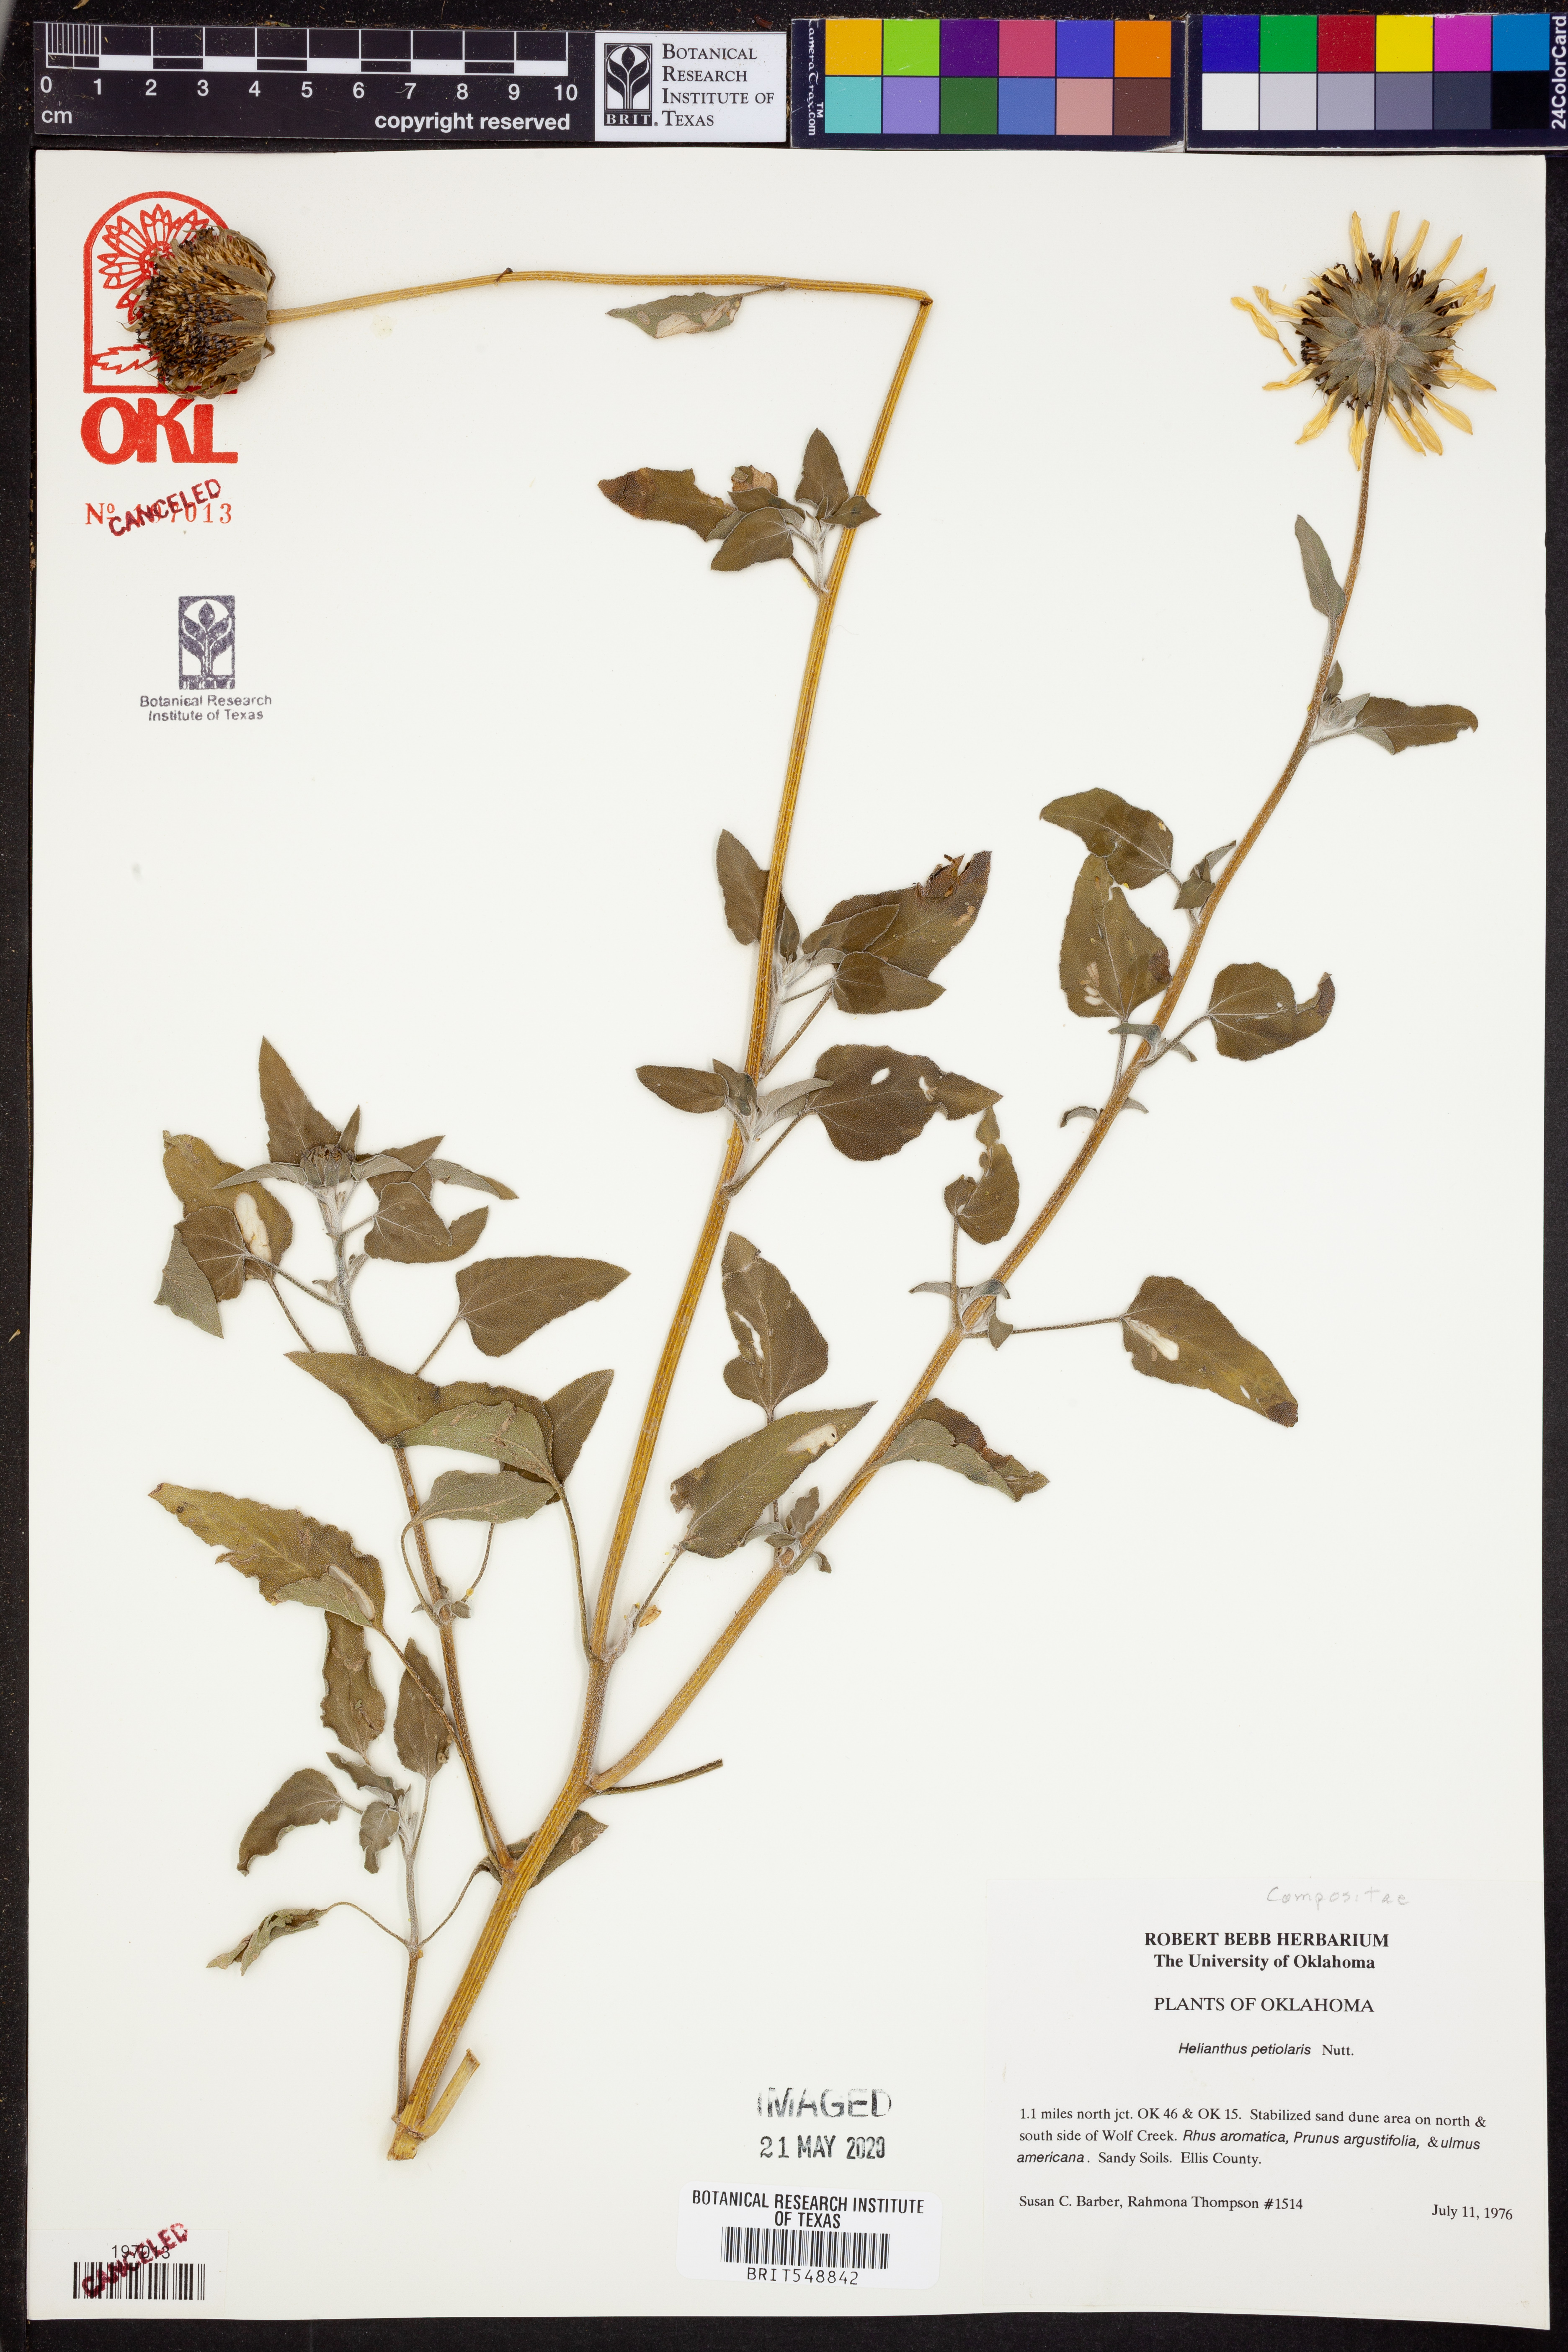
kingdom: Plantae
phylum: Tracheophyta
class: Magnoliopsida
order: Asterales
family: Asteraceae
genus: Helianthus
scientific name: Helianthus petiolaris
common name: Lesser sunflower
